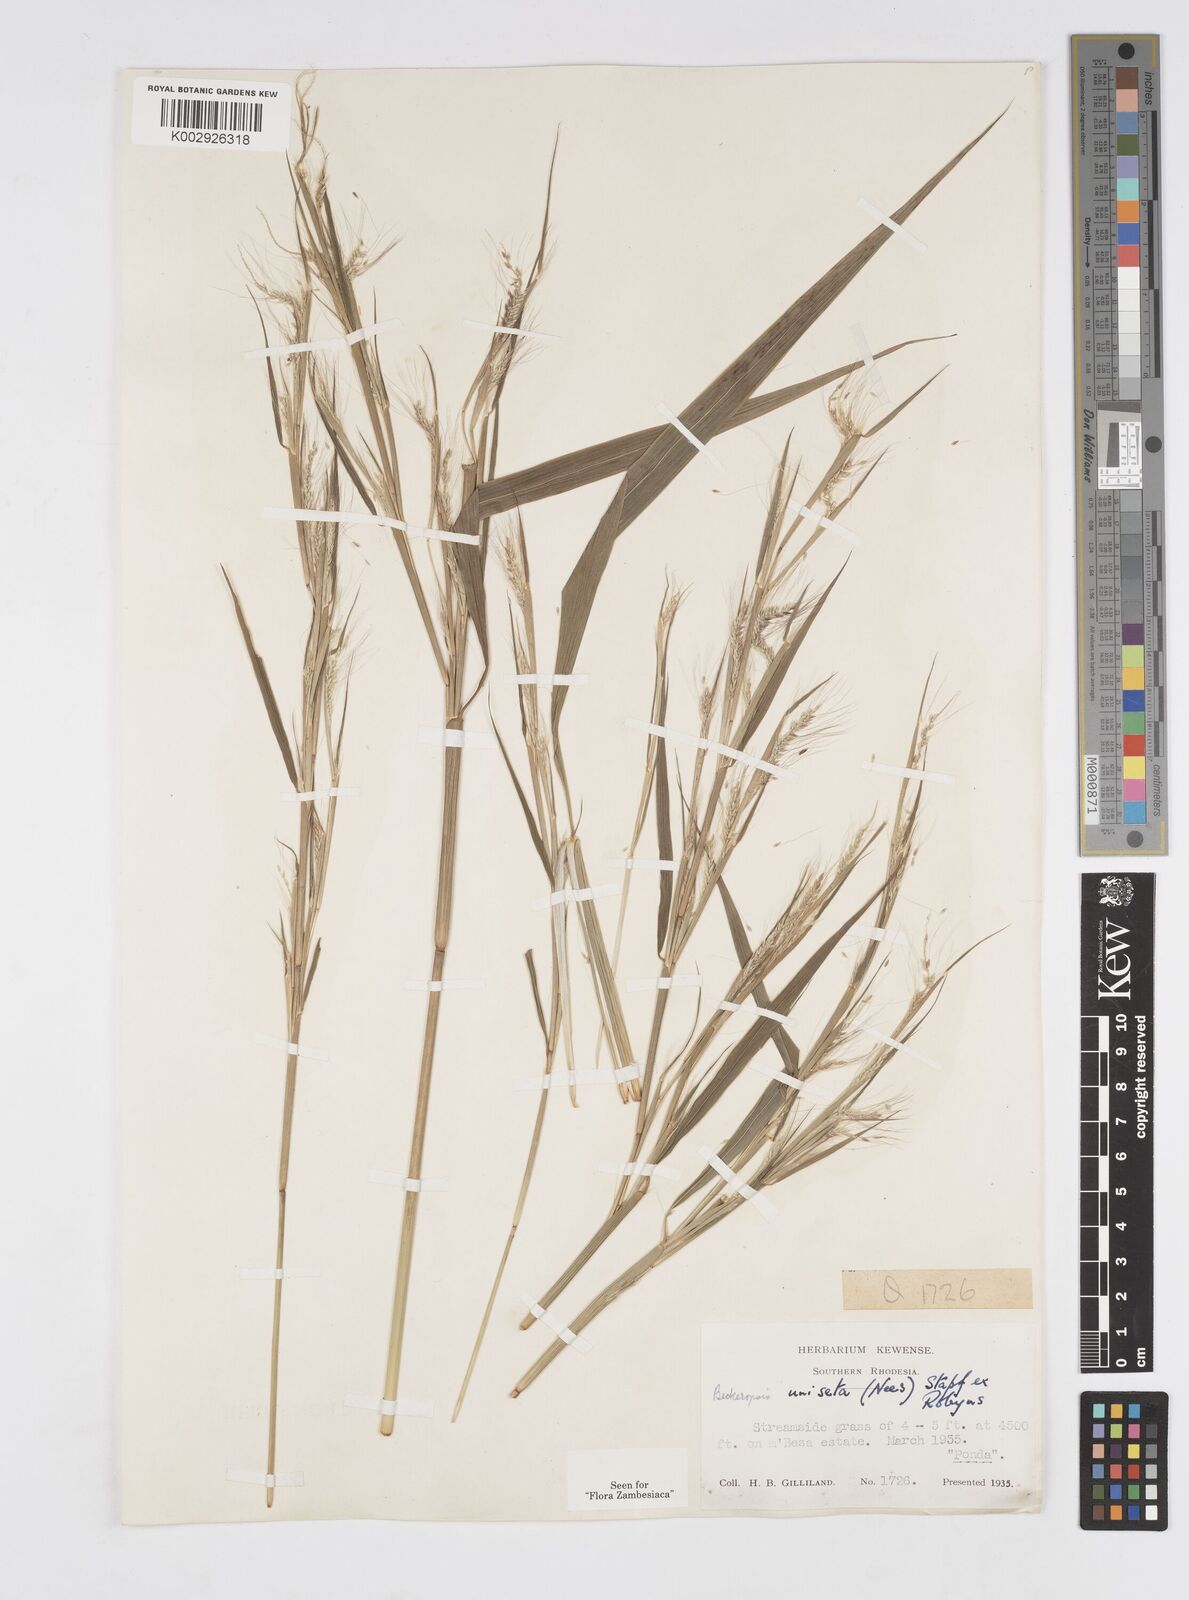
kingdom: Plantae
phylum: Tracheophyta
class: Liliopsida
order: Poales
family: Poaceae
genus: Cenchrus
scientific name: Cenchrus unisetus
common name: Natal grass
